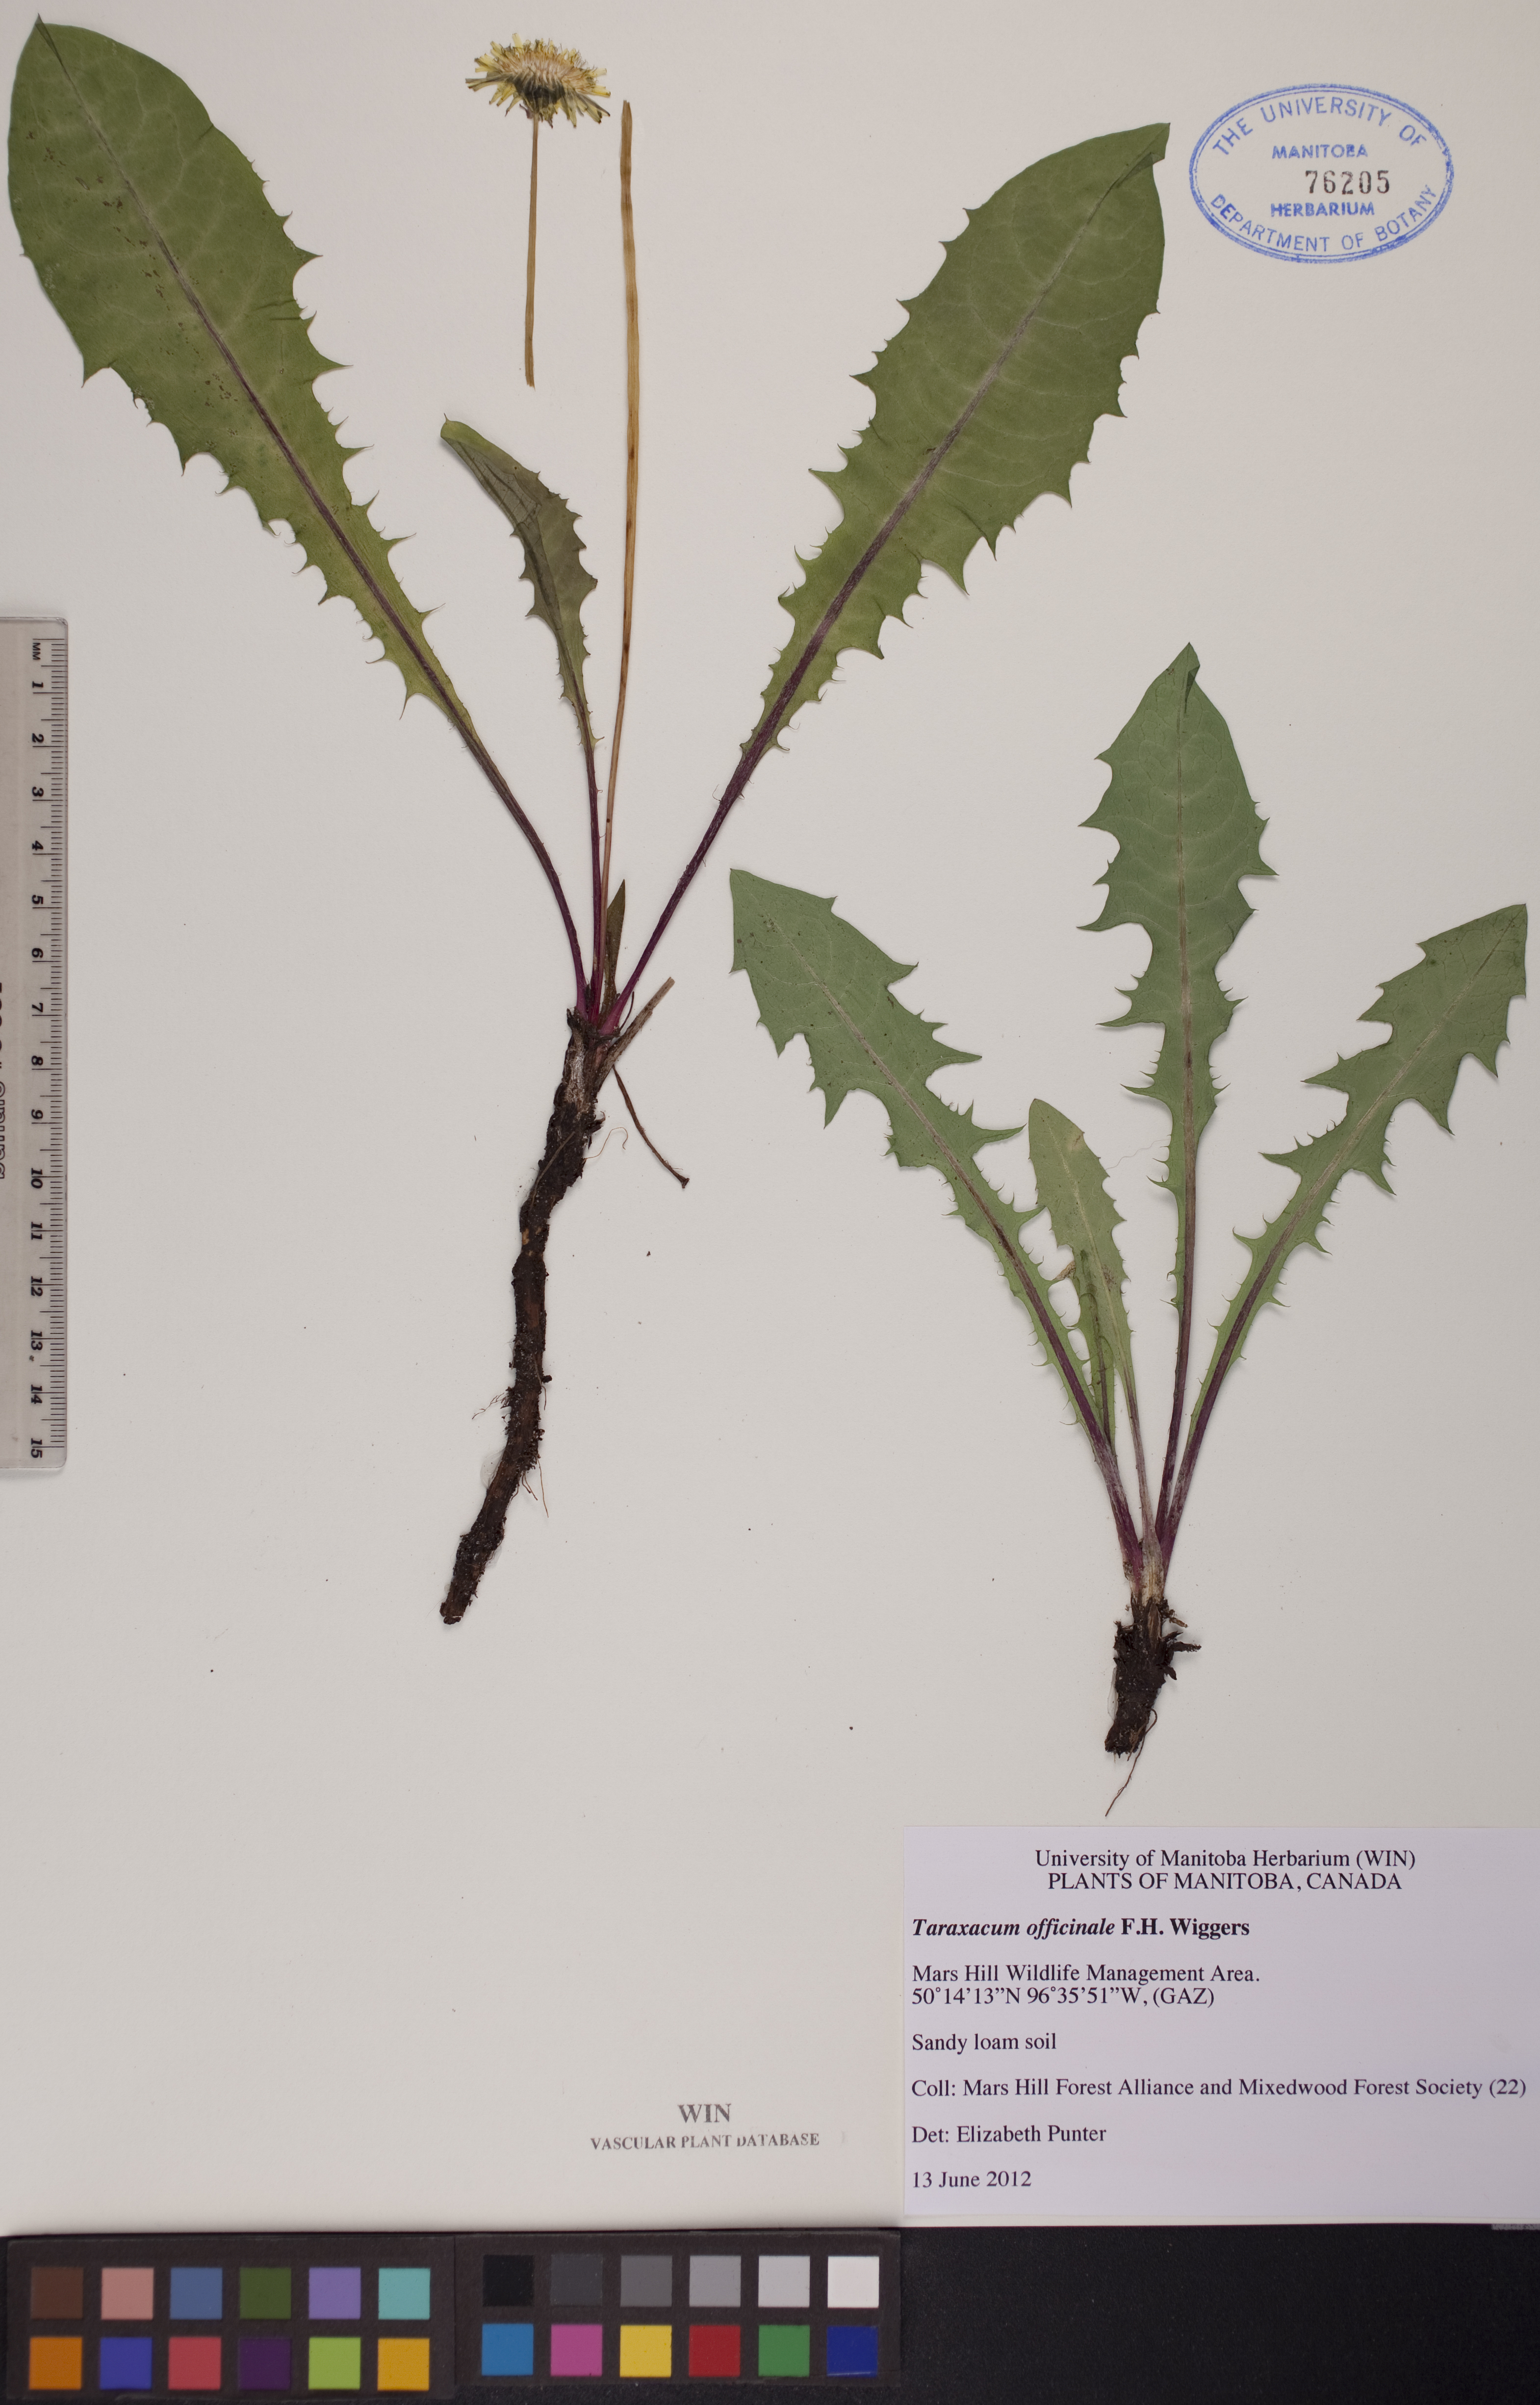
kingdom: Plantae
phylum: Tracheophyta
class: Magnoliopsida
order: Asterales
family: Asteraceae
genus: Taraxacum
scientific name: Taraxacum officinale
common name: Common dandelion
